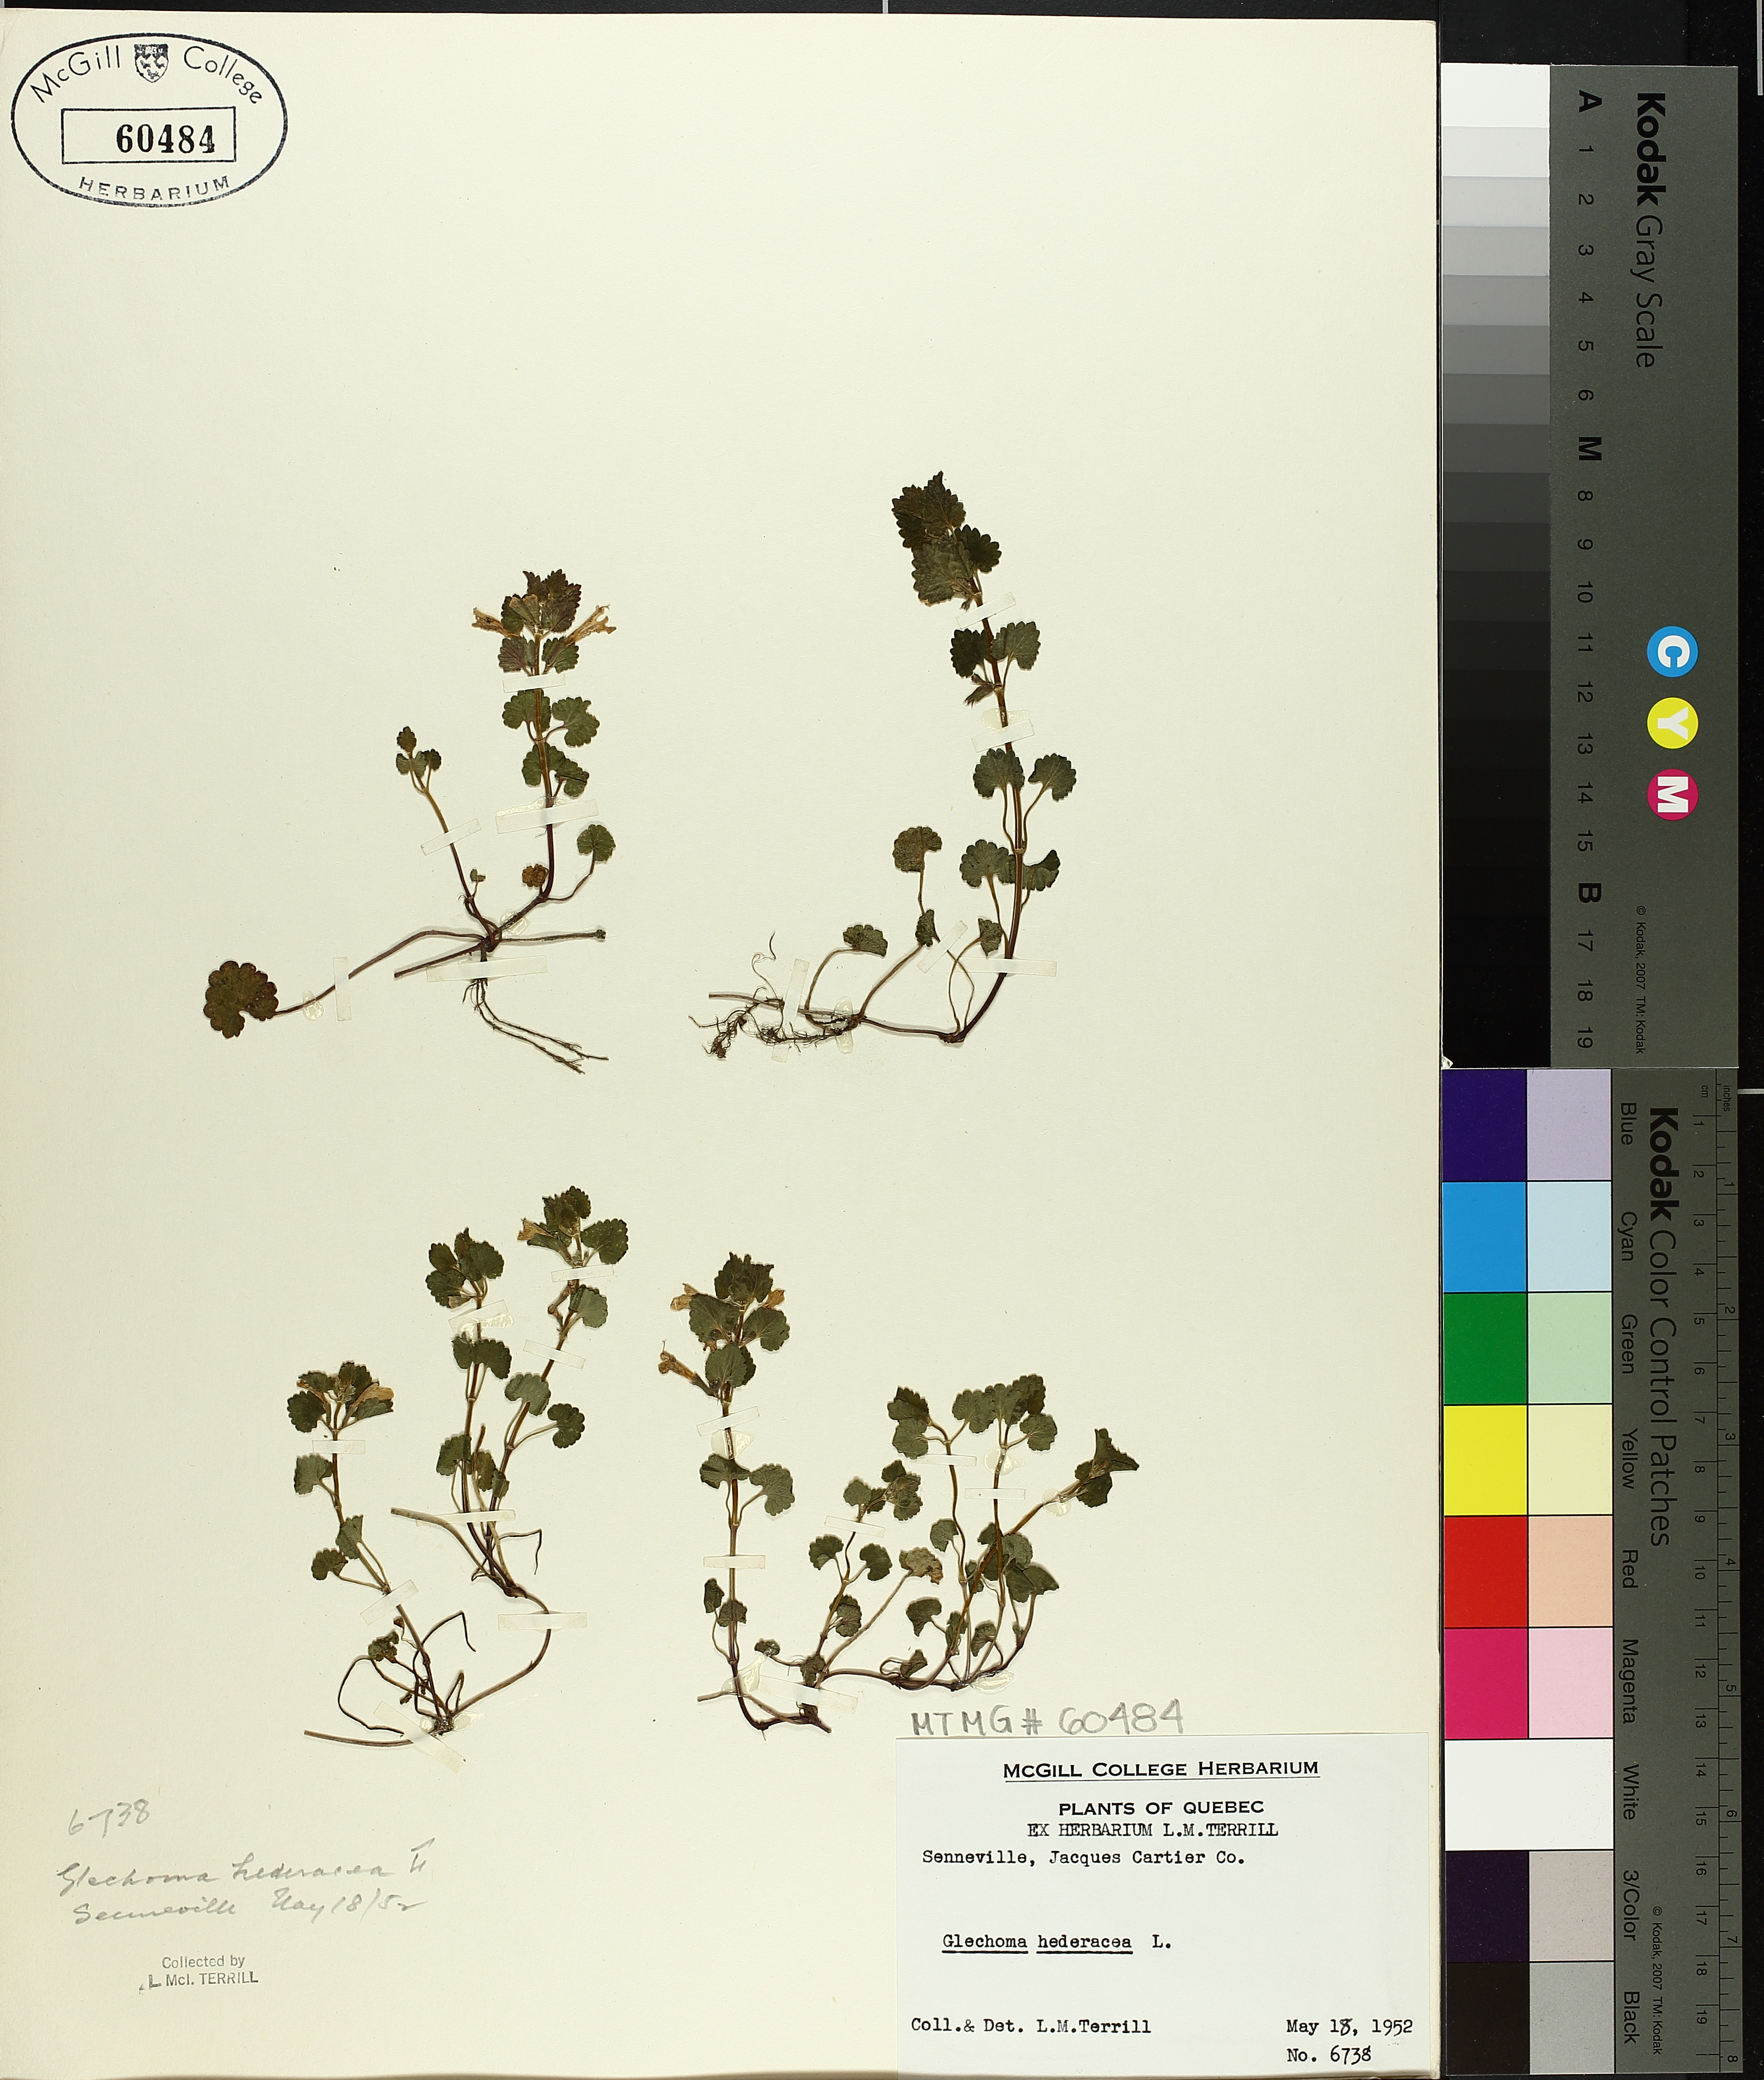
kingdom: Plantae
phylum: Tracheophyta
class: Magnoliopsida
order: Lamiales
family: Lamiaceae
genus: Glechoma
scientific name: Glechoma hederacea
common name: Ground ivy
